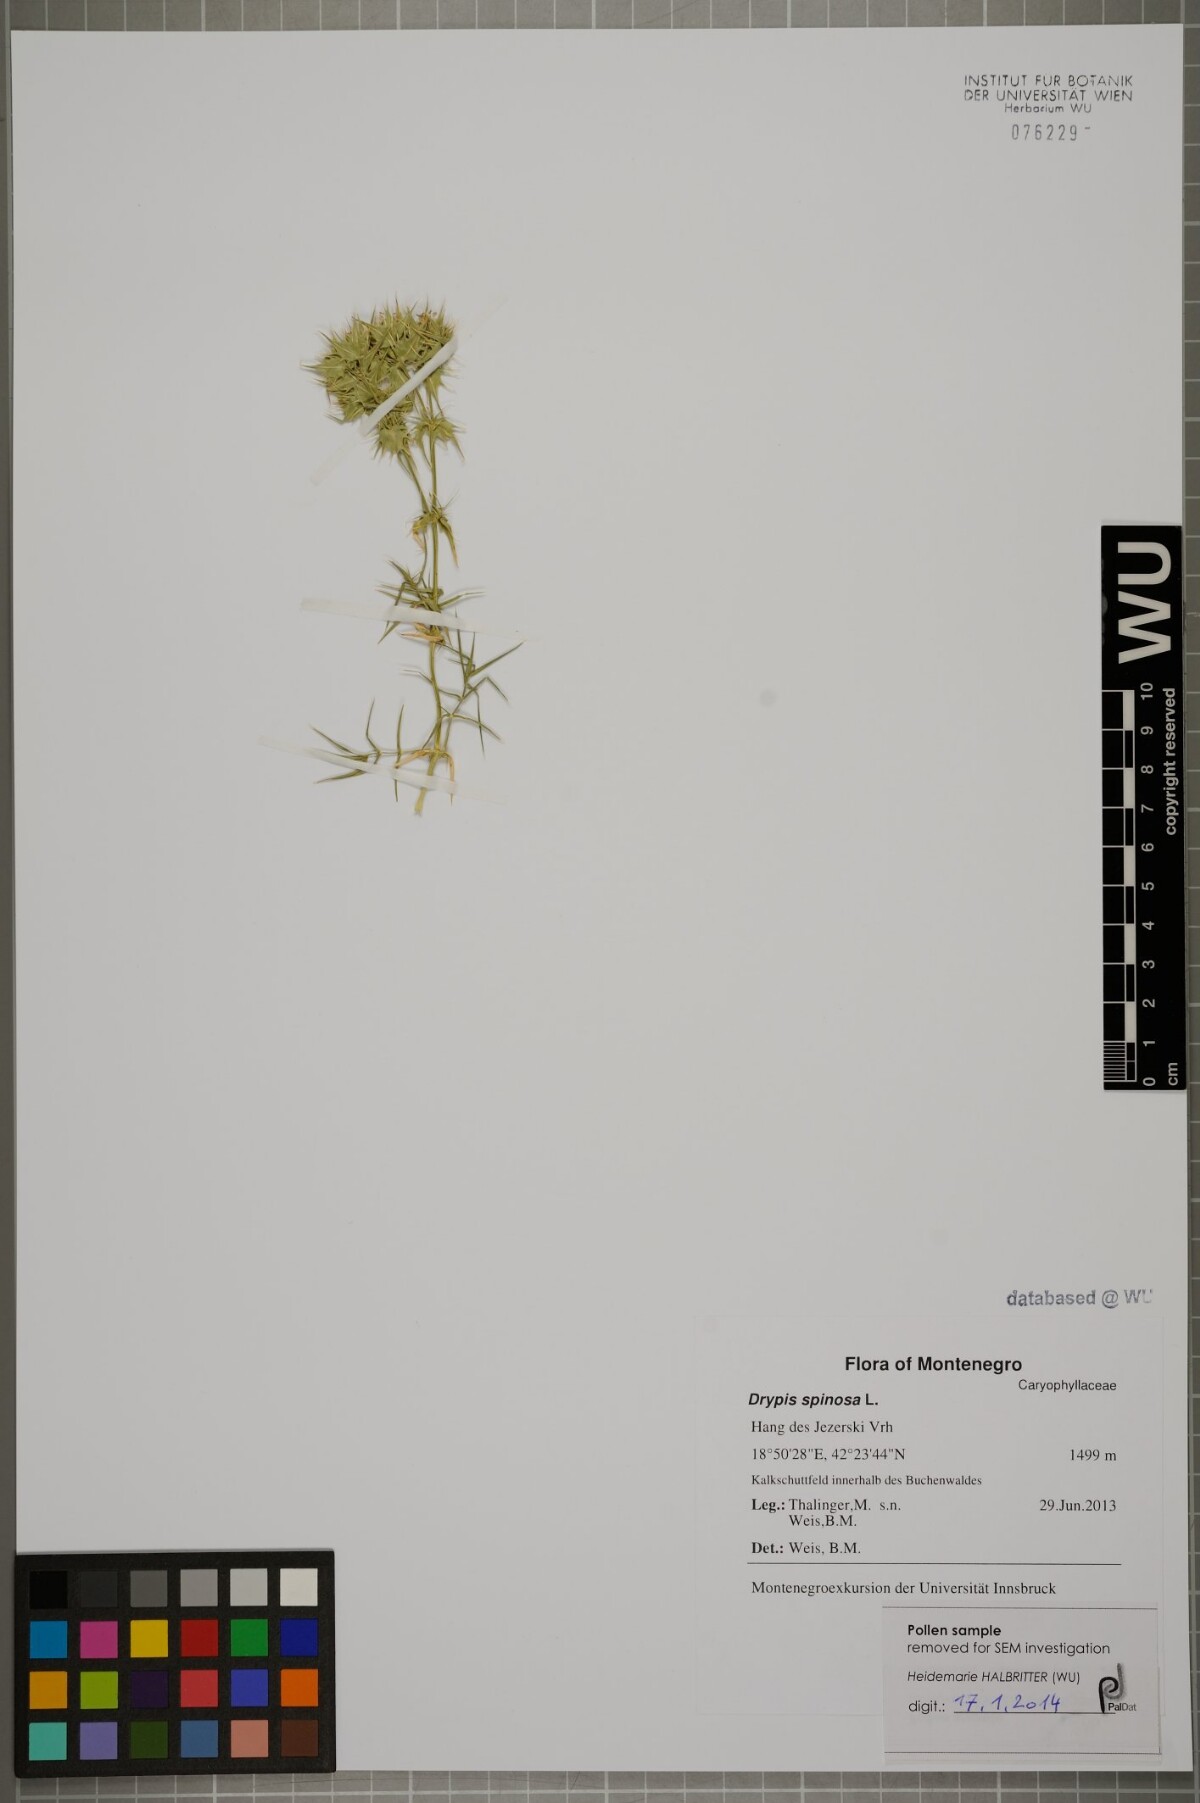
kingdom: Plantae
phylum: Tracheophyta
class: Magnoliopsida
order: Caryophyllales
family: Caryophyllaceae
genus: Drypis
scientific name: Drypis spinosa
